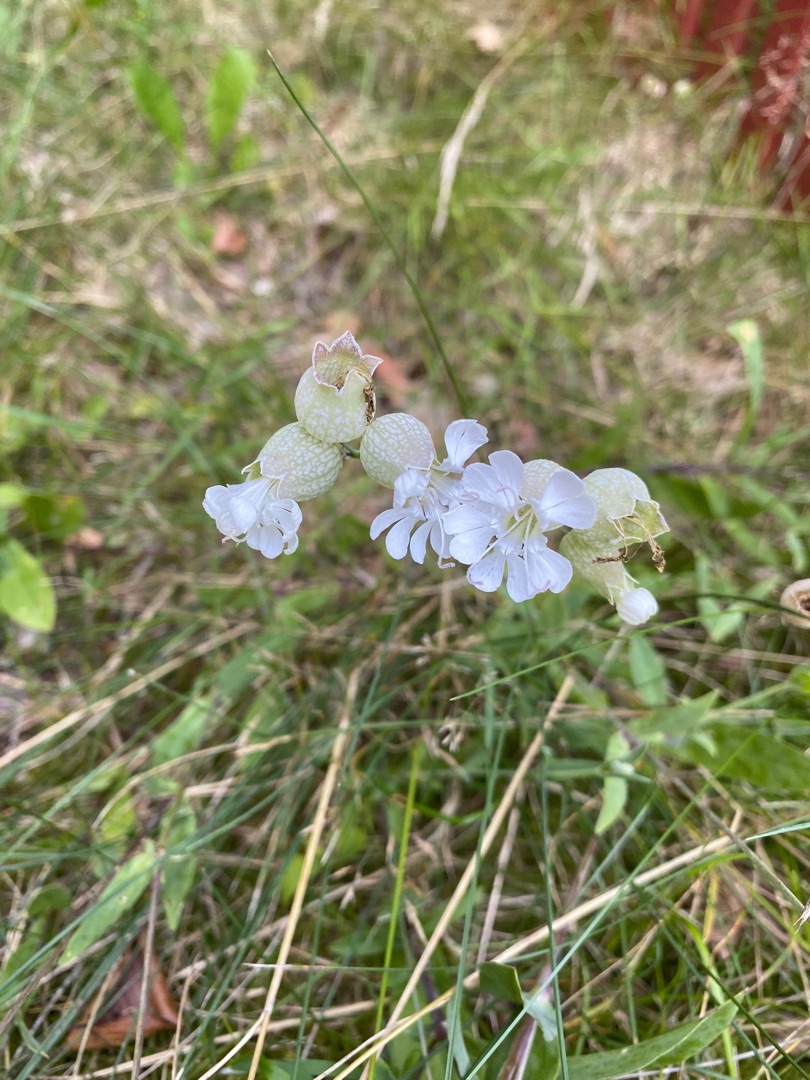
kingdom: Plantae
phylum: Tracheophyta
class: Magnoliopsida
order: Caryophyllales
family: Caryophyllaceae
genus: Silene
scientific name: Silene vulgaris
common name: Blæresmælde
